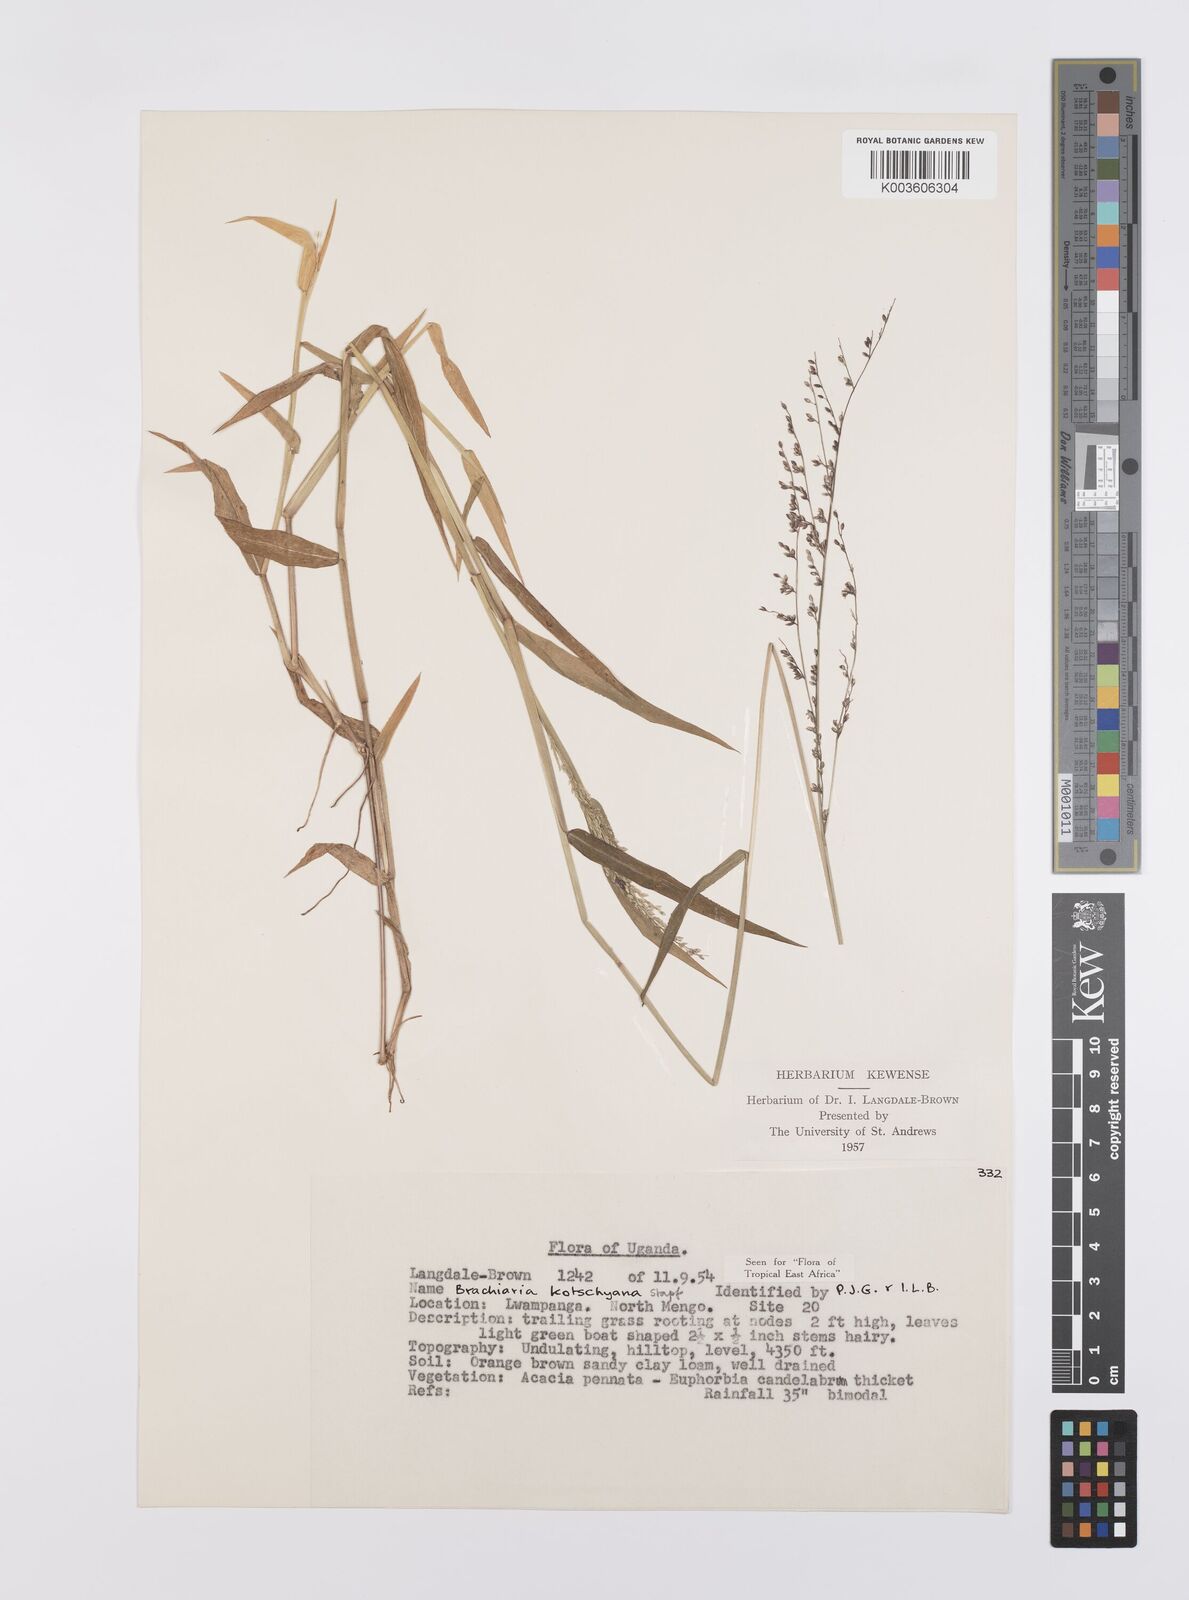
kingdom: Plantae
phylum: Tracheophyta
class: Liliopsida
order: Poales
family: Poaceae
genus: Urochloa
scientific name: Urochloa comata
